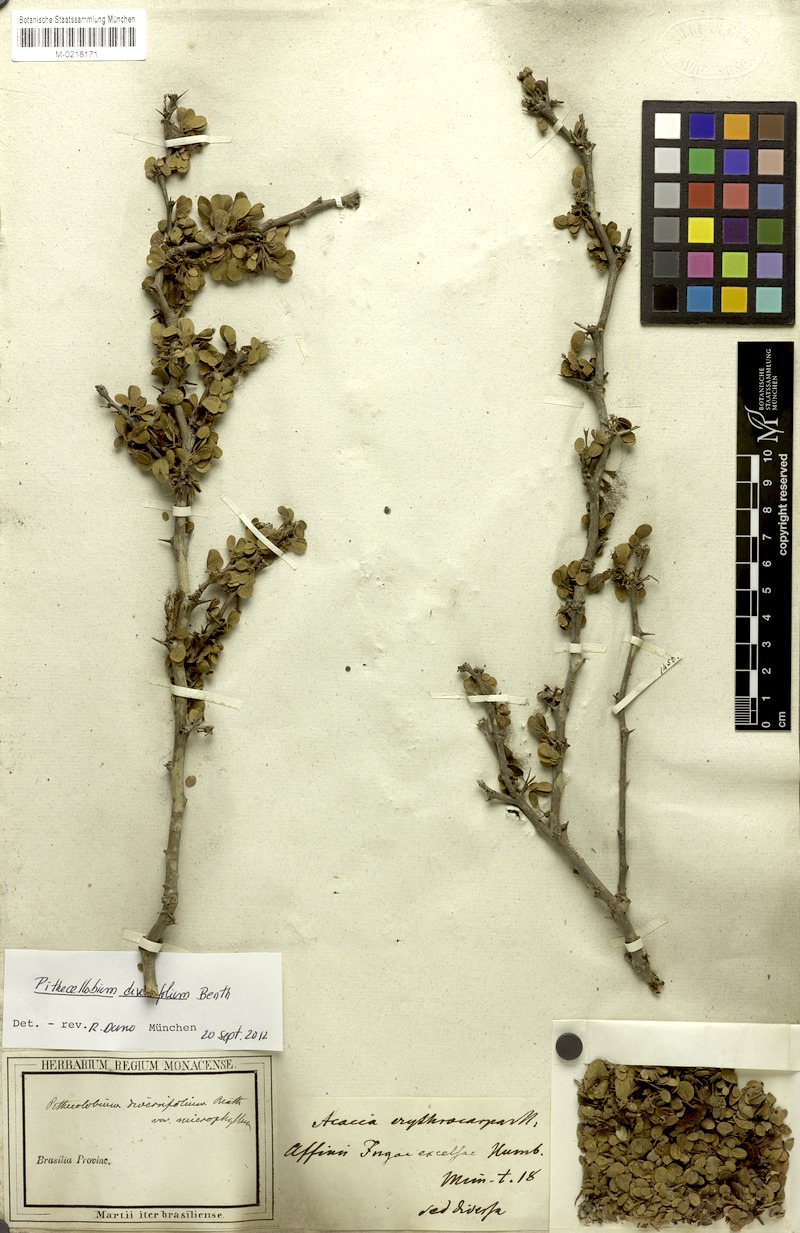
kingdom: Plantae
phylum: Tracheophyta
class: Magnoliopsida
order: Fabales
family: Fabaceae
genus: Pithecellobium
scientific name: Pithecellobium diversifolium
